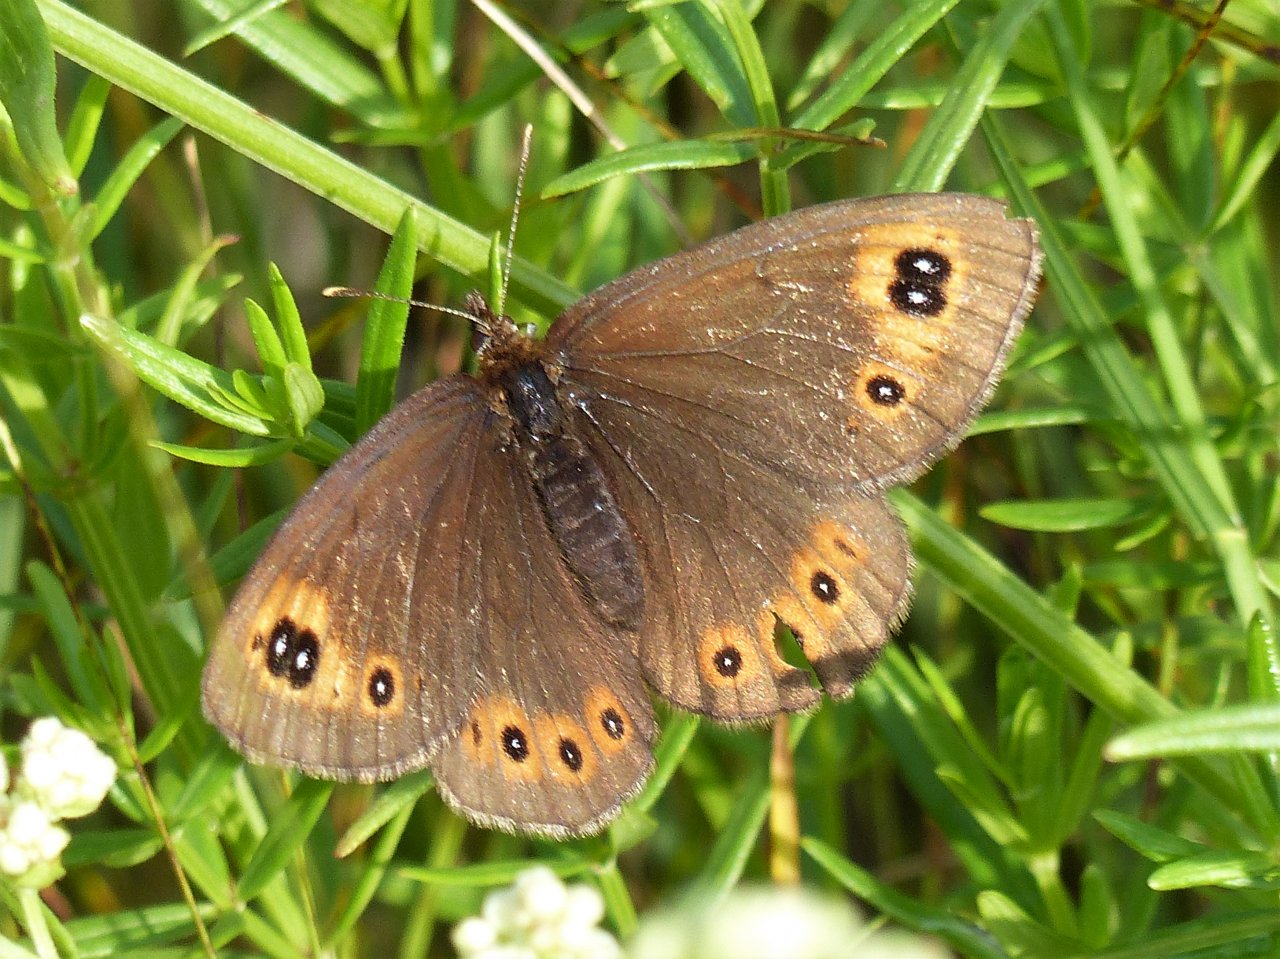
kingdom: Animalia
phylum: Arthropoda
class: Insecta
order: Lepidoptera
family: Nymphalidae
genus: Erebia
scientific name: Erebia epipsodea
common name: Common Alpine
